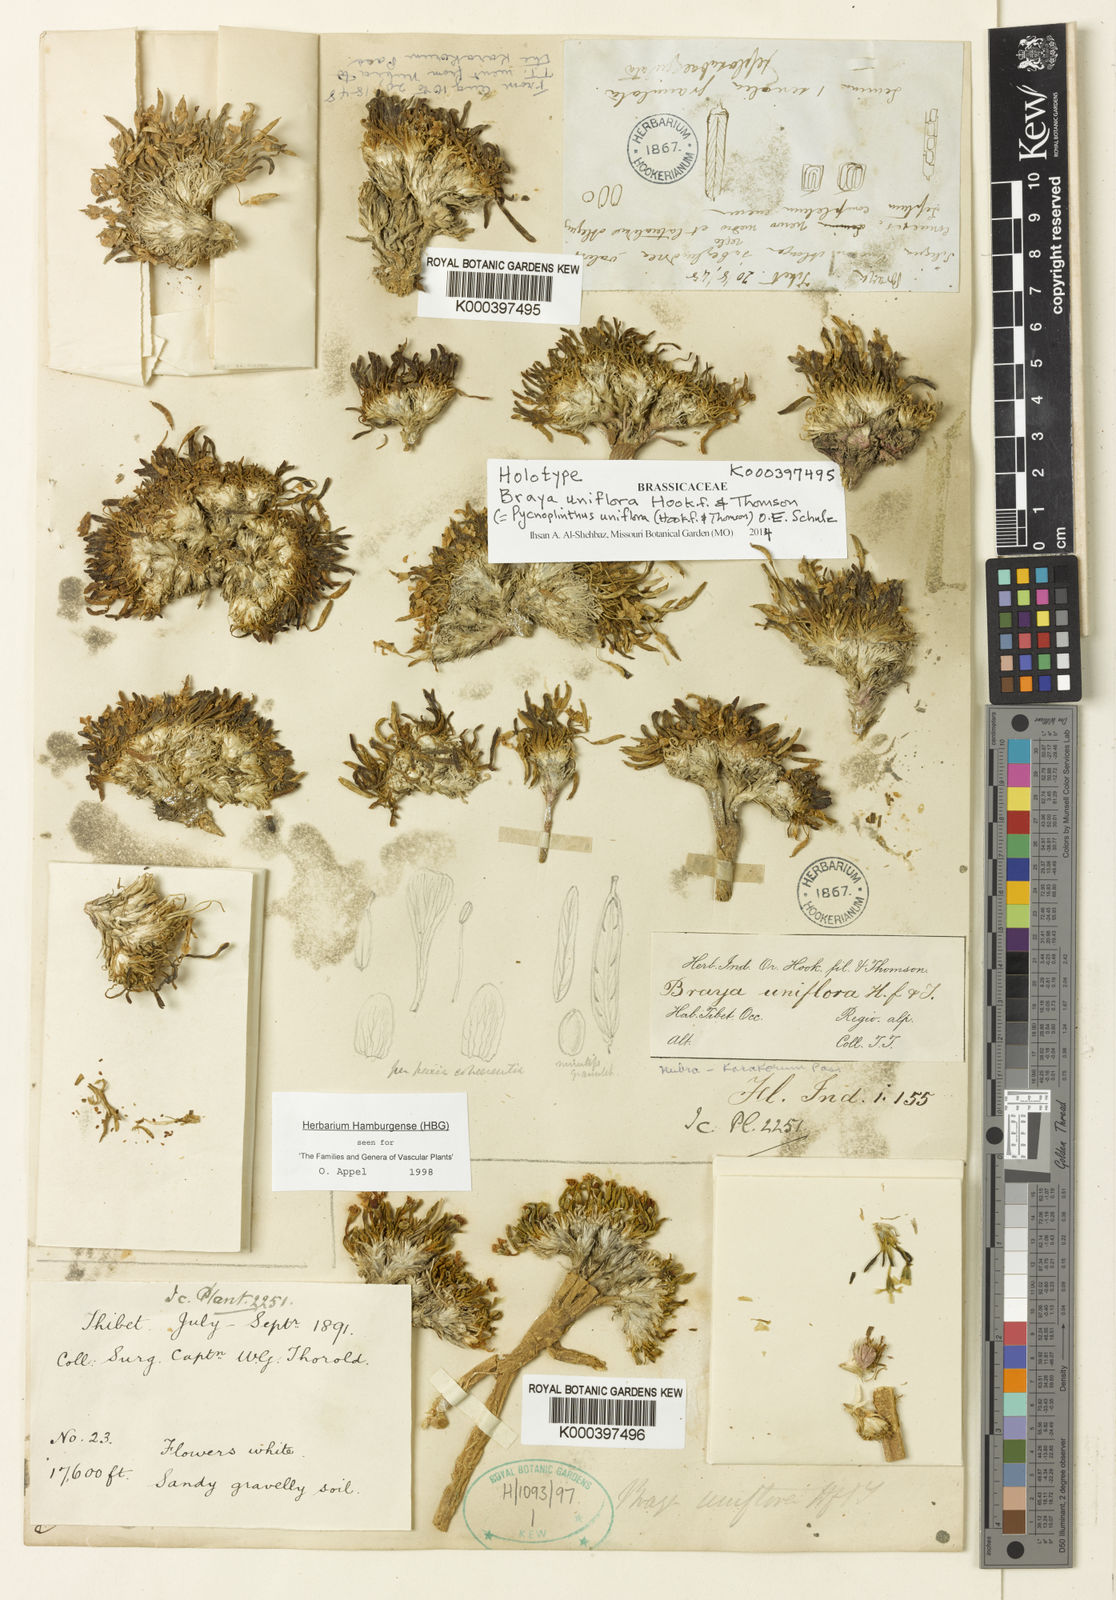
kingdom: Plantae
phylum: Tracheophyta
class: Magnoliopsida
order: Brassicales
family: Brassicaceae
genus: Pycnoplinthus
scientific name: Pycnoplinthus uniflora
